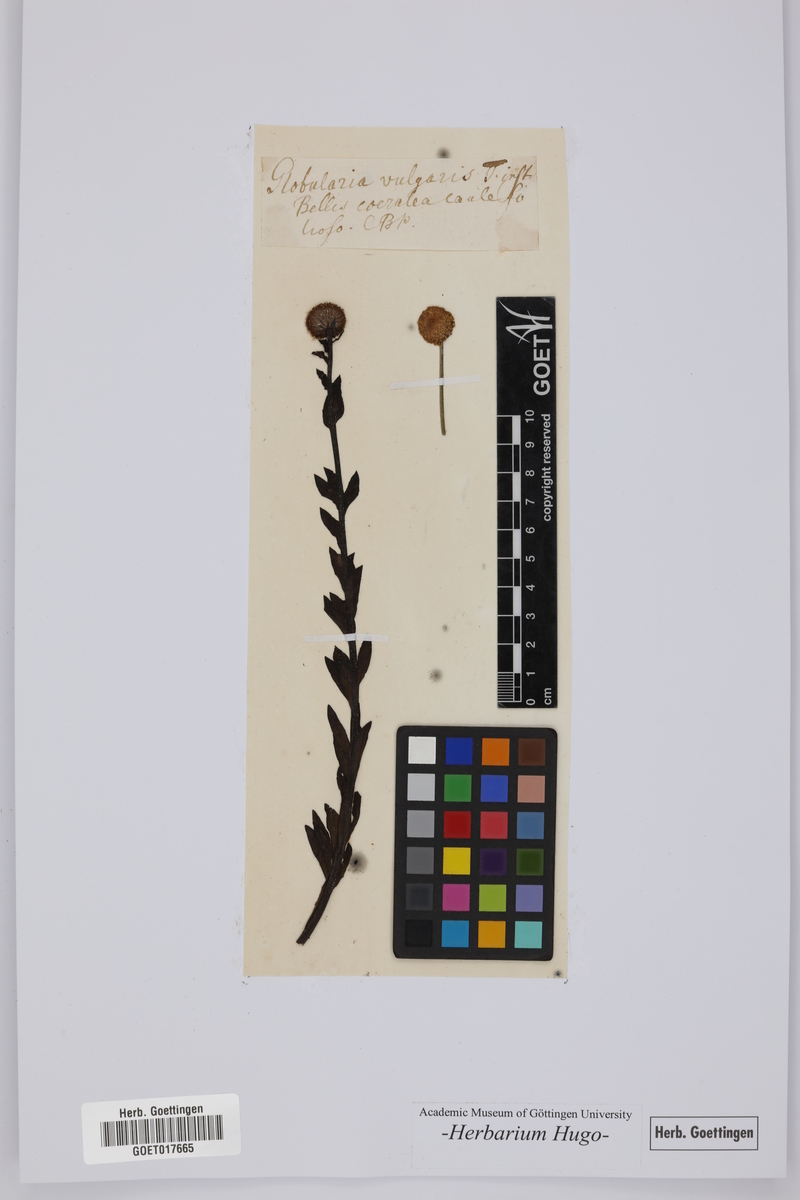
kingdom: Plantae
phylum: Tracheophyta
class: Magnoliopsida
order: Lamiales
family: Plantaginaceae
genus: Globularia
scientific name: Globularia vulgaris
